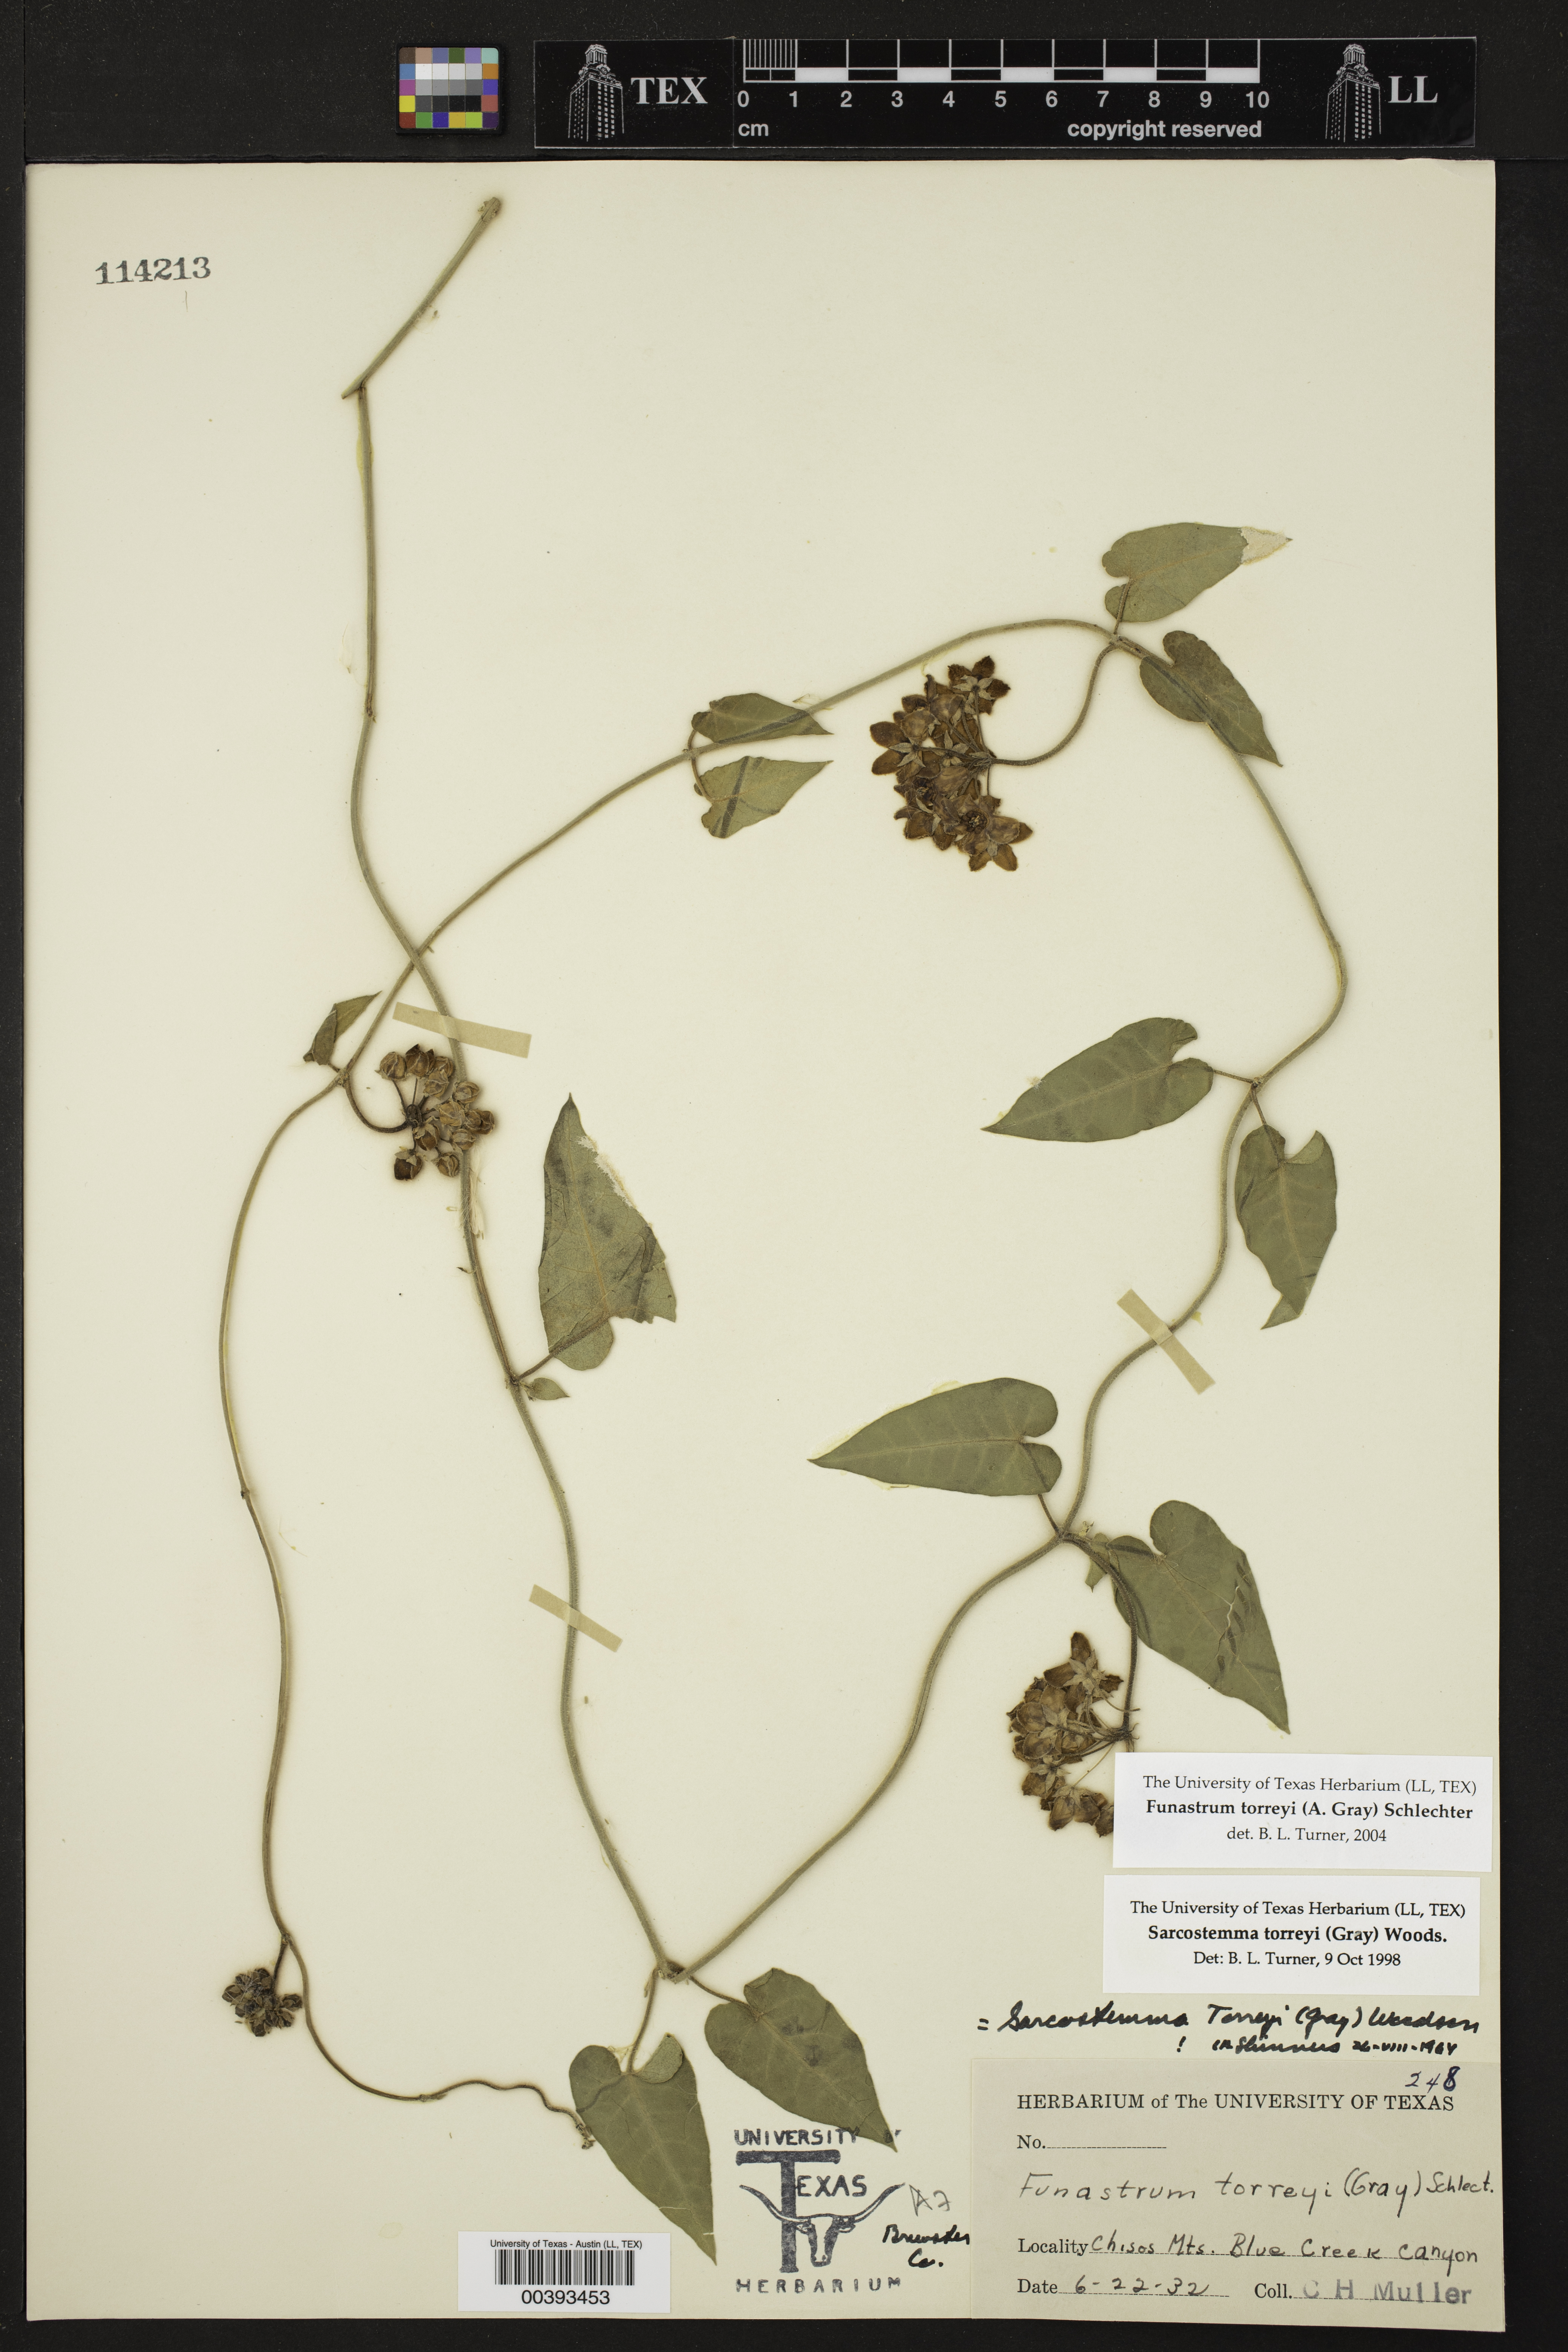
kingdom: Plantae
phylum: Tracheophyta
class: Magnoliopsida
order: Gentianales
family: Apocynaceae
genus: Funastrum
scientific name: Funastrum torreyi
